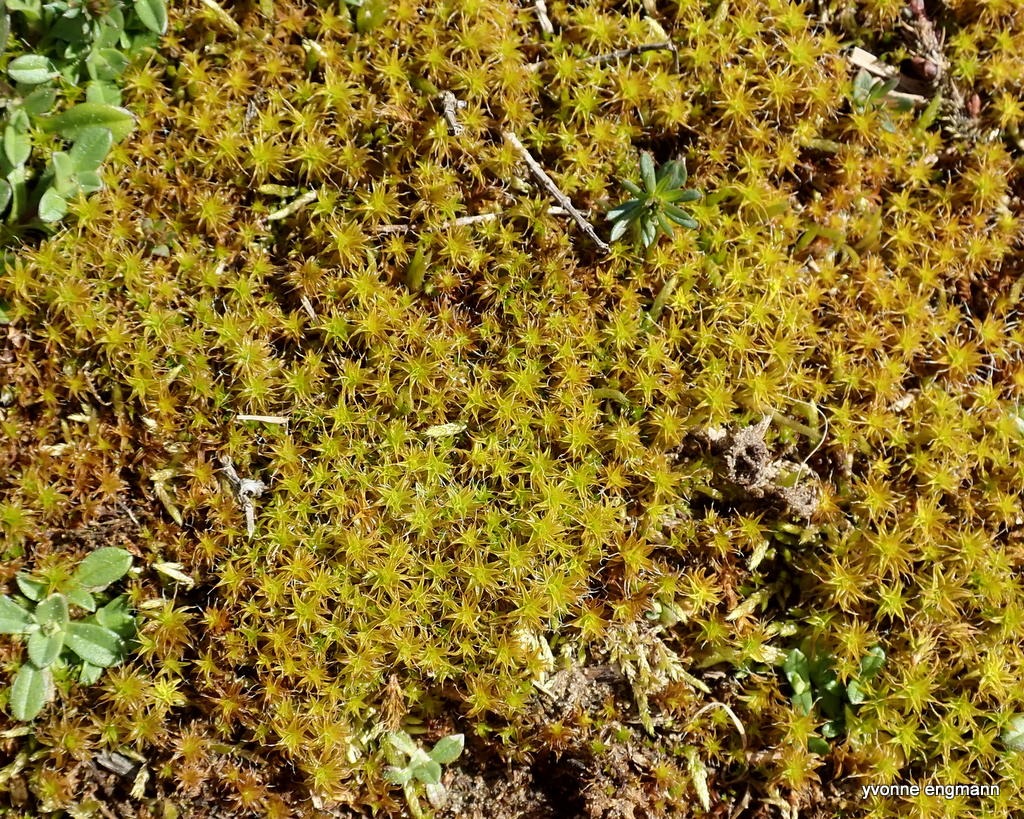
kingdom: Plantae
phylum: Bryophyta
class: Bryopsida
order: Pottiales
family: Pottiaceae
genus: Syntrichia
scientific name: Syntrichia ruralis
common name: Spidsbladet hårstjerne
